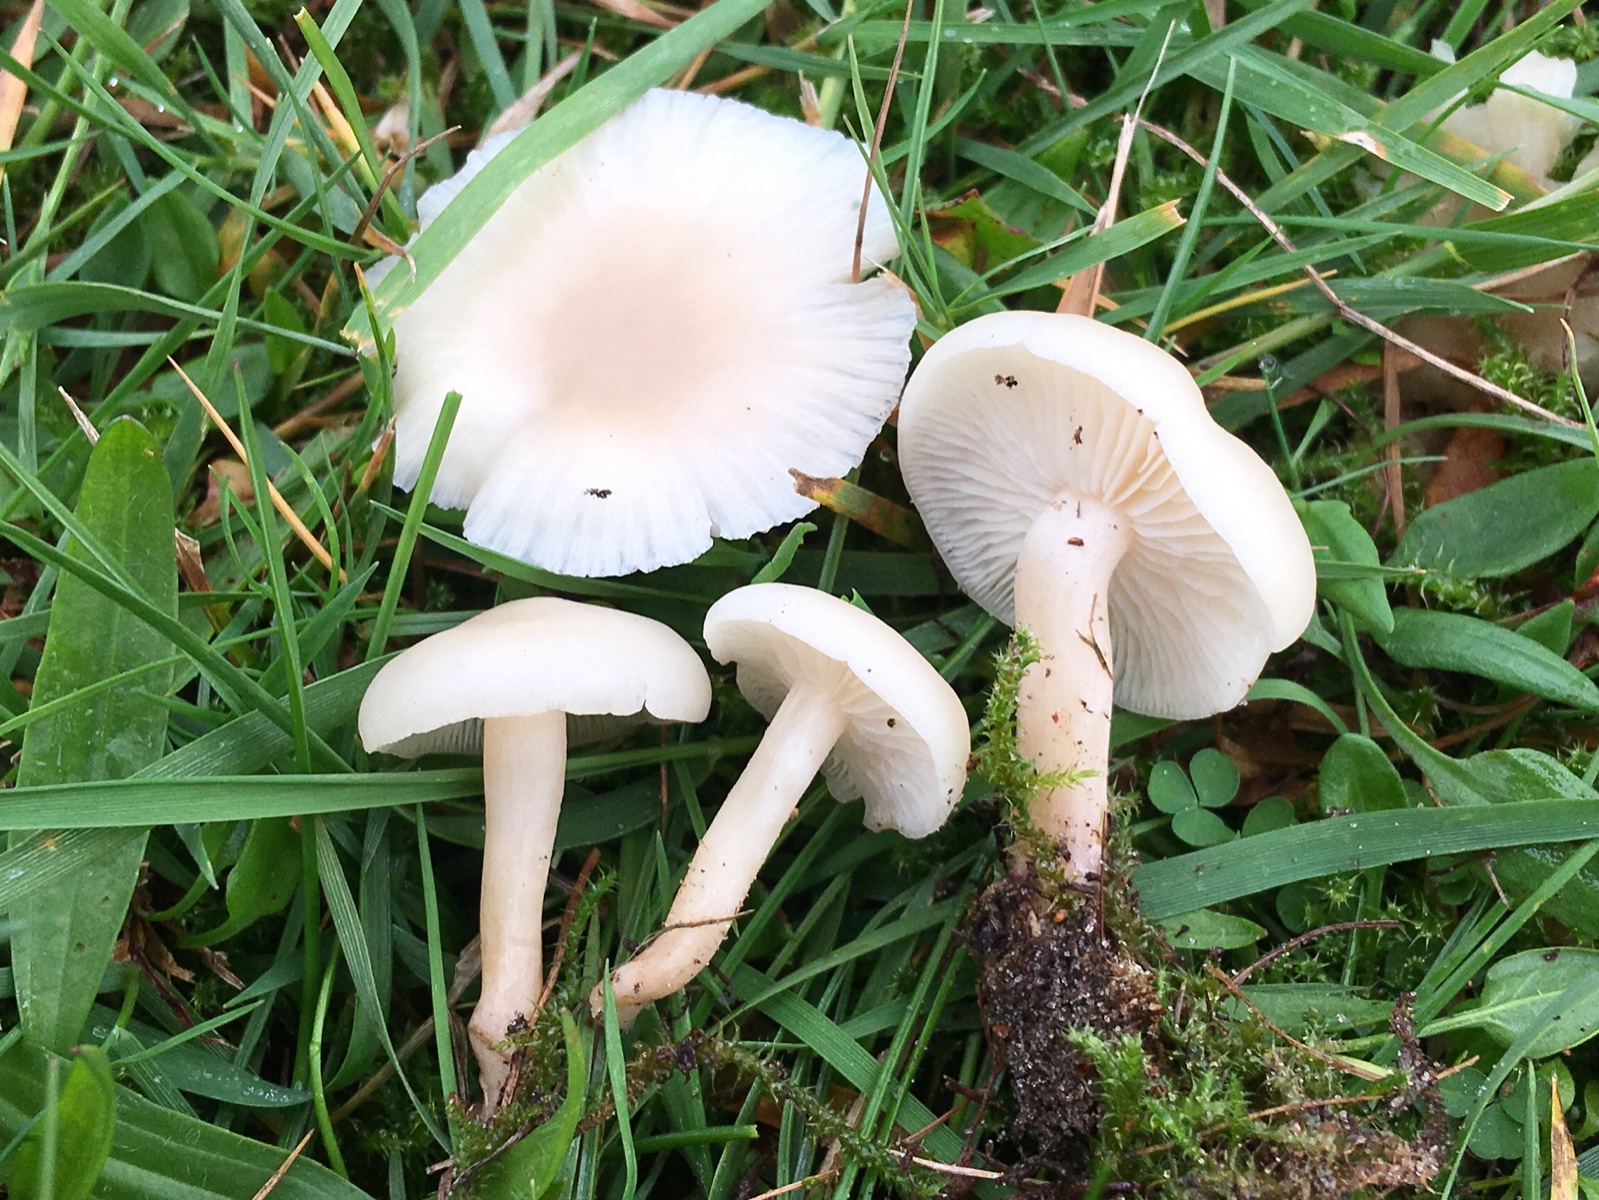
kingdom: Fungi
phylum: Basidiomycota
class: Agaricomycetes
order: Agaricales
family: Hygrophoraceae
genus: Cuphophyllus
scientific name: Cuphophyllus virgineus
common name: snehvid vokshat
